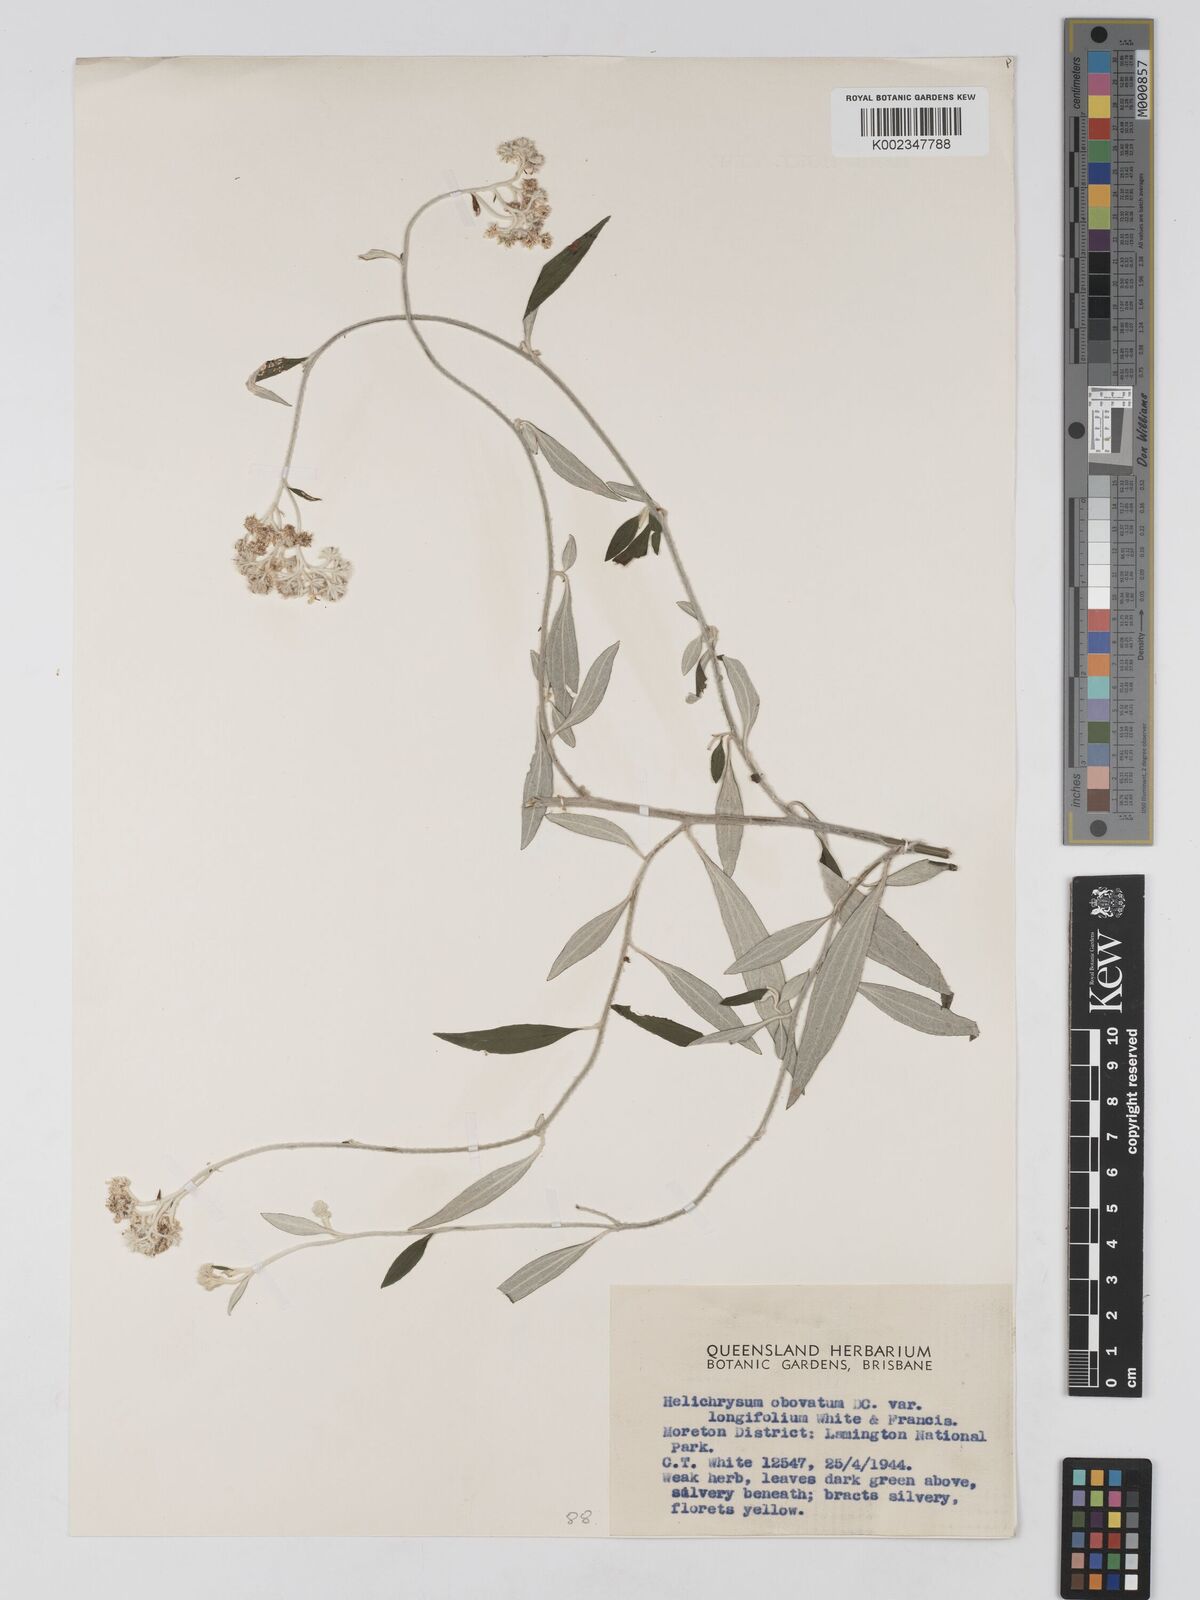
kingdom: Plantae
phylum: Tracheophyta
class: Magnoliopsida
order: Asterales
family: Asteraceae
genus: Ozothamnus
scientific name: Ozothamnus whitei
